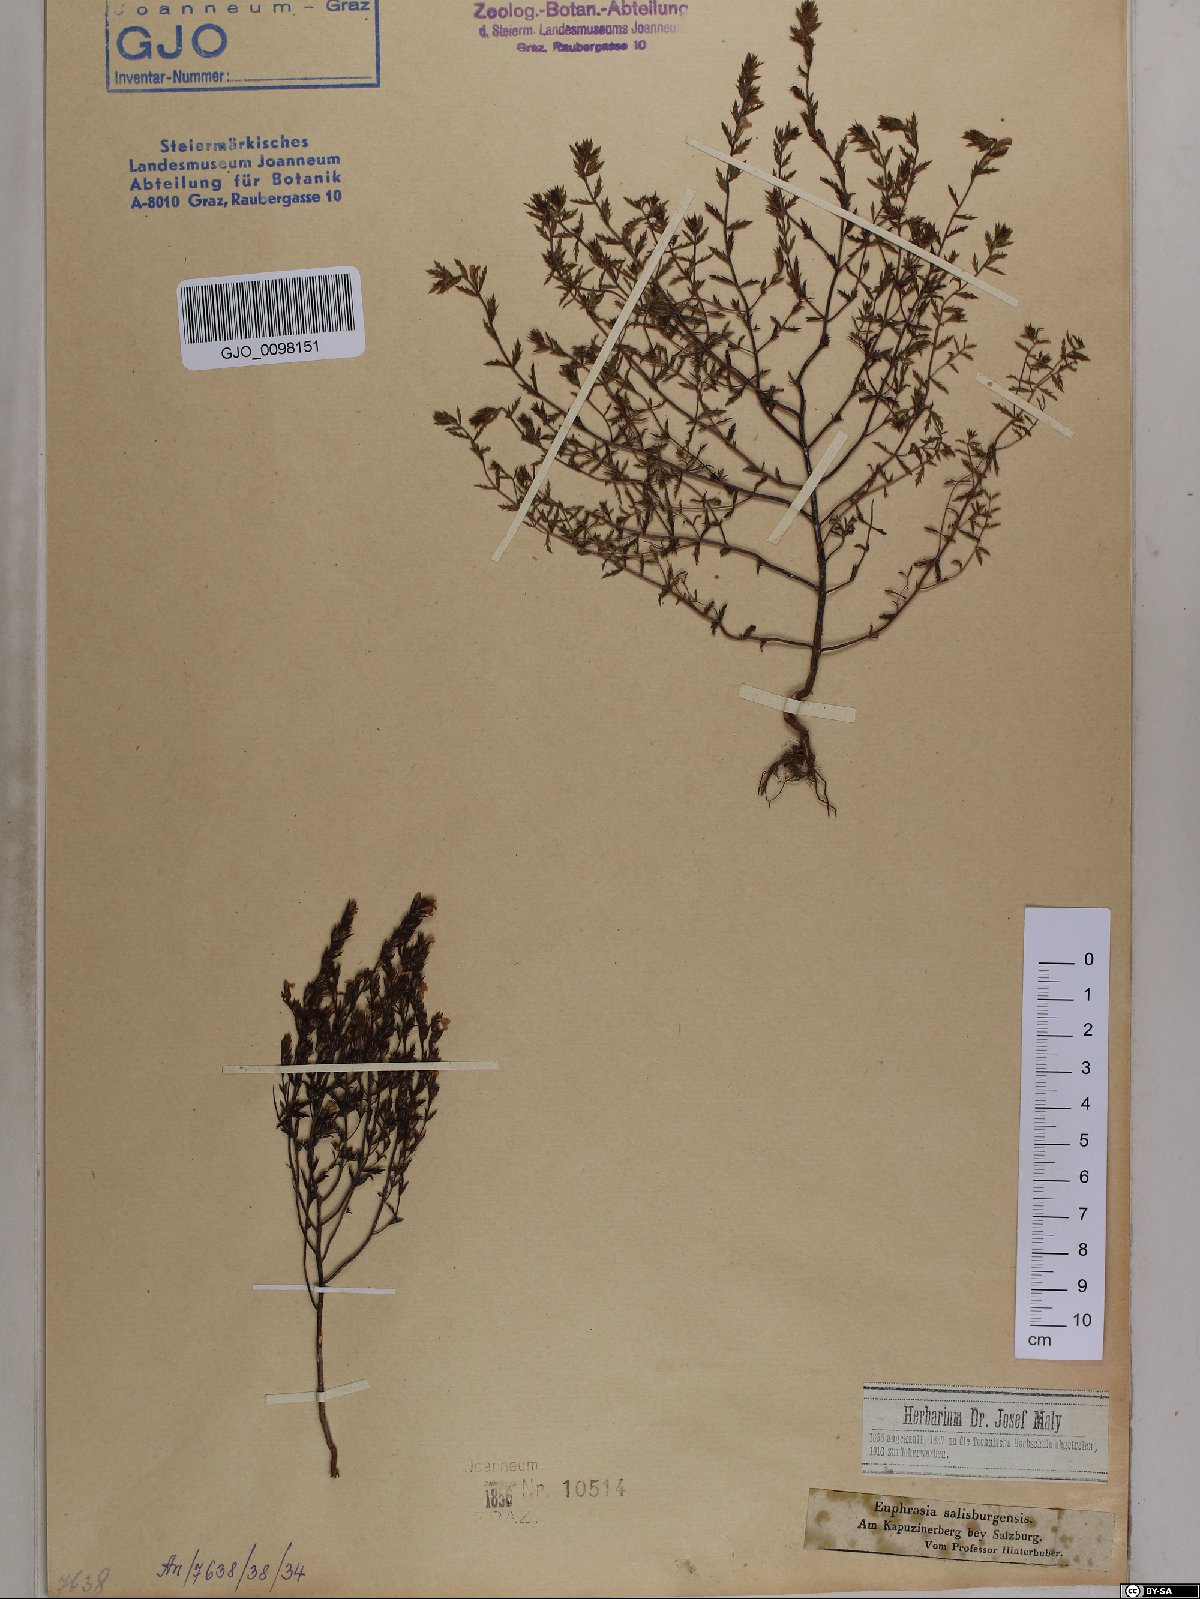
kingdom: Plantae
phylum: Tracheophyta
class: Magnoliopsida
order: Lamiales
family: Orobanchaceae
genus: Euphrasia
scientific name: Euphrasia salisburgensis
